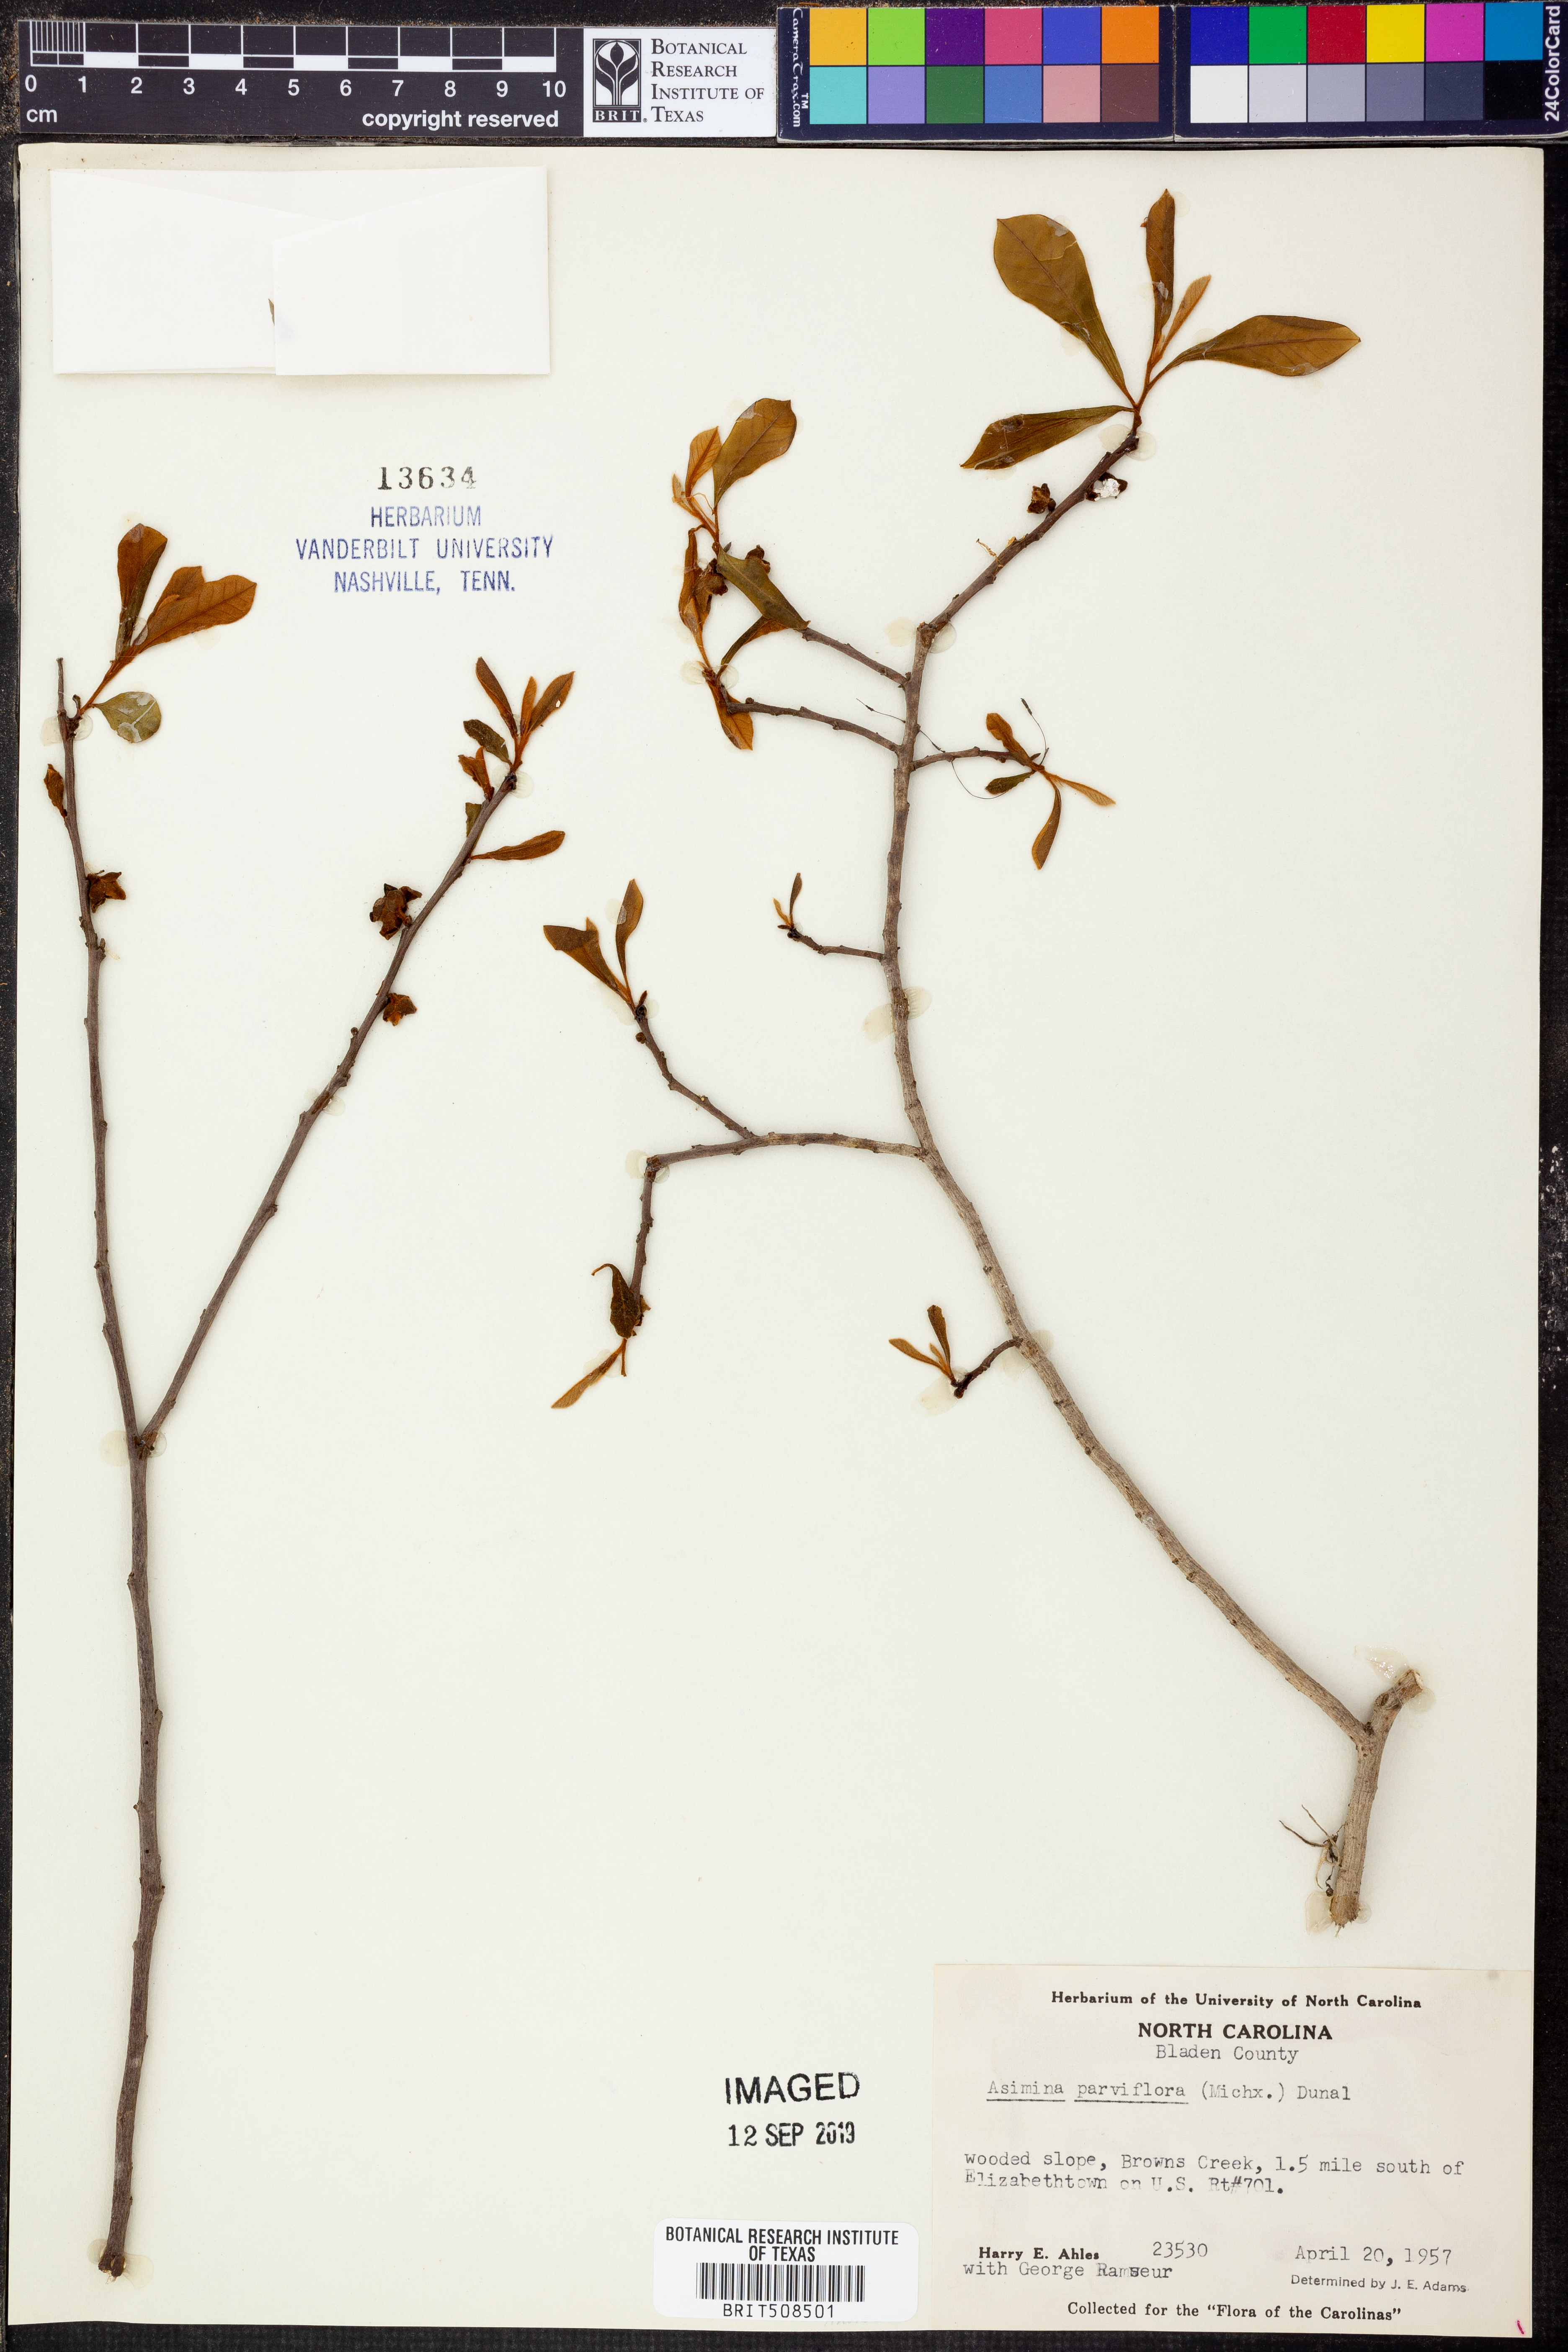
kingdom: Plantae
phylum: Tracheophyta
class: Magnoliopsida
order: Magnoliales
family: Annonaceae
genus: Asimina
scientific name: Asimina parviflora
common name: Dwarf pawpaw
